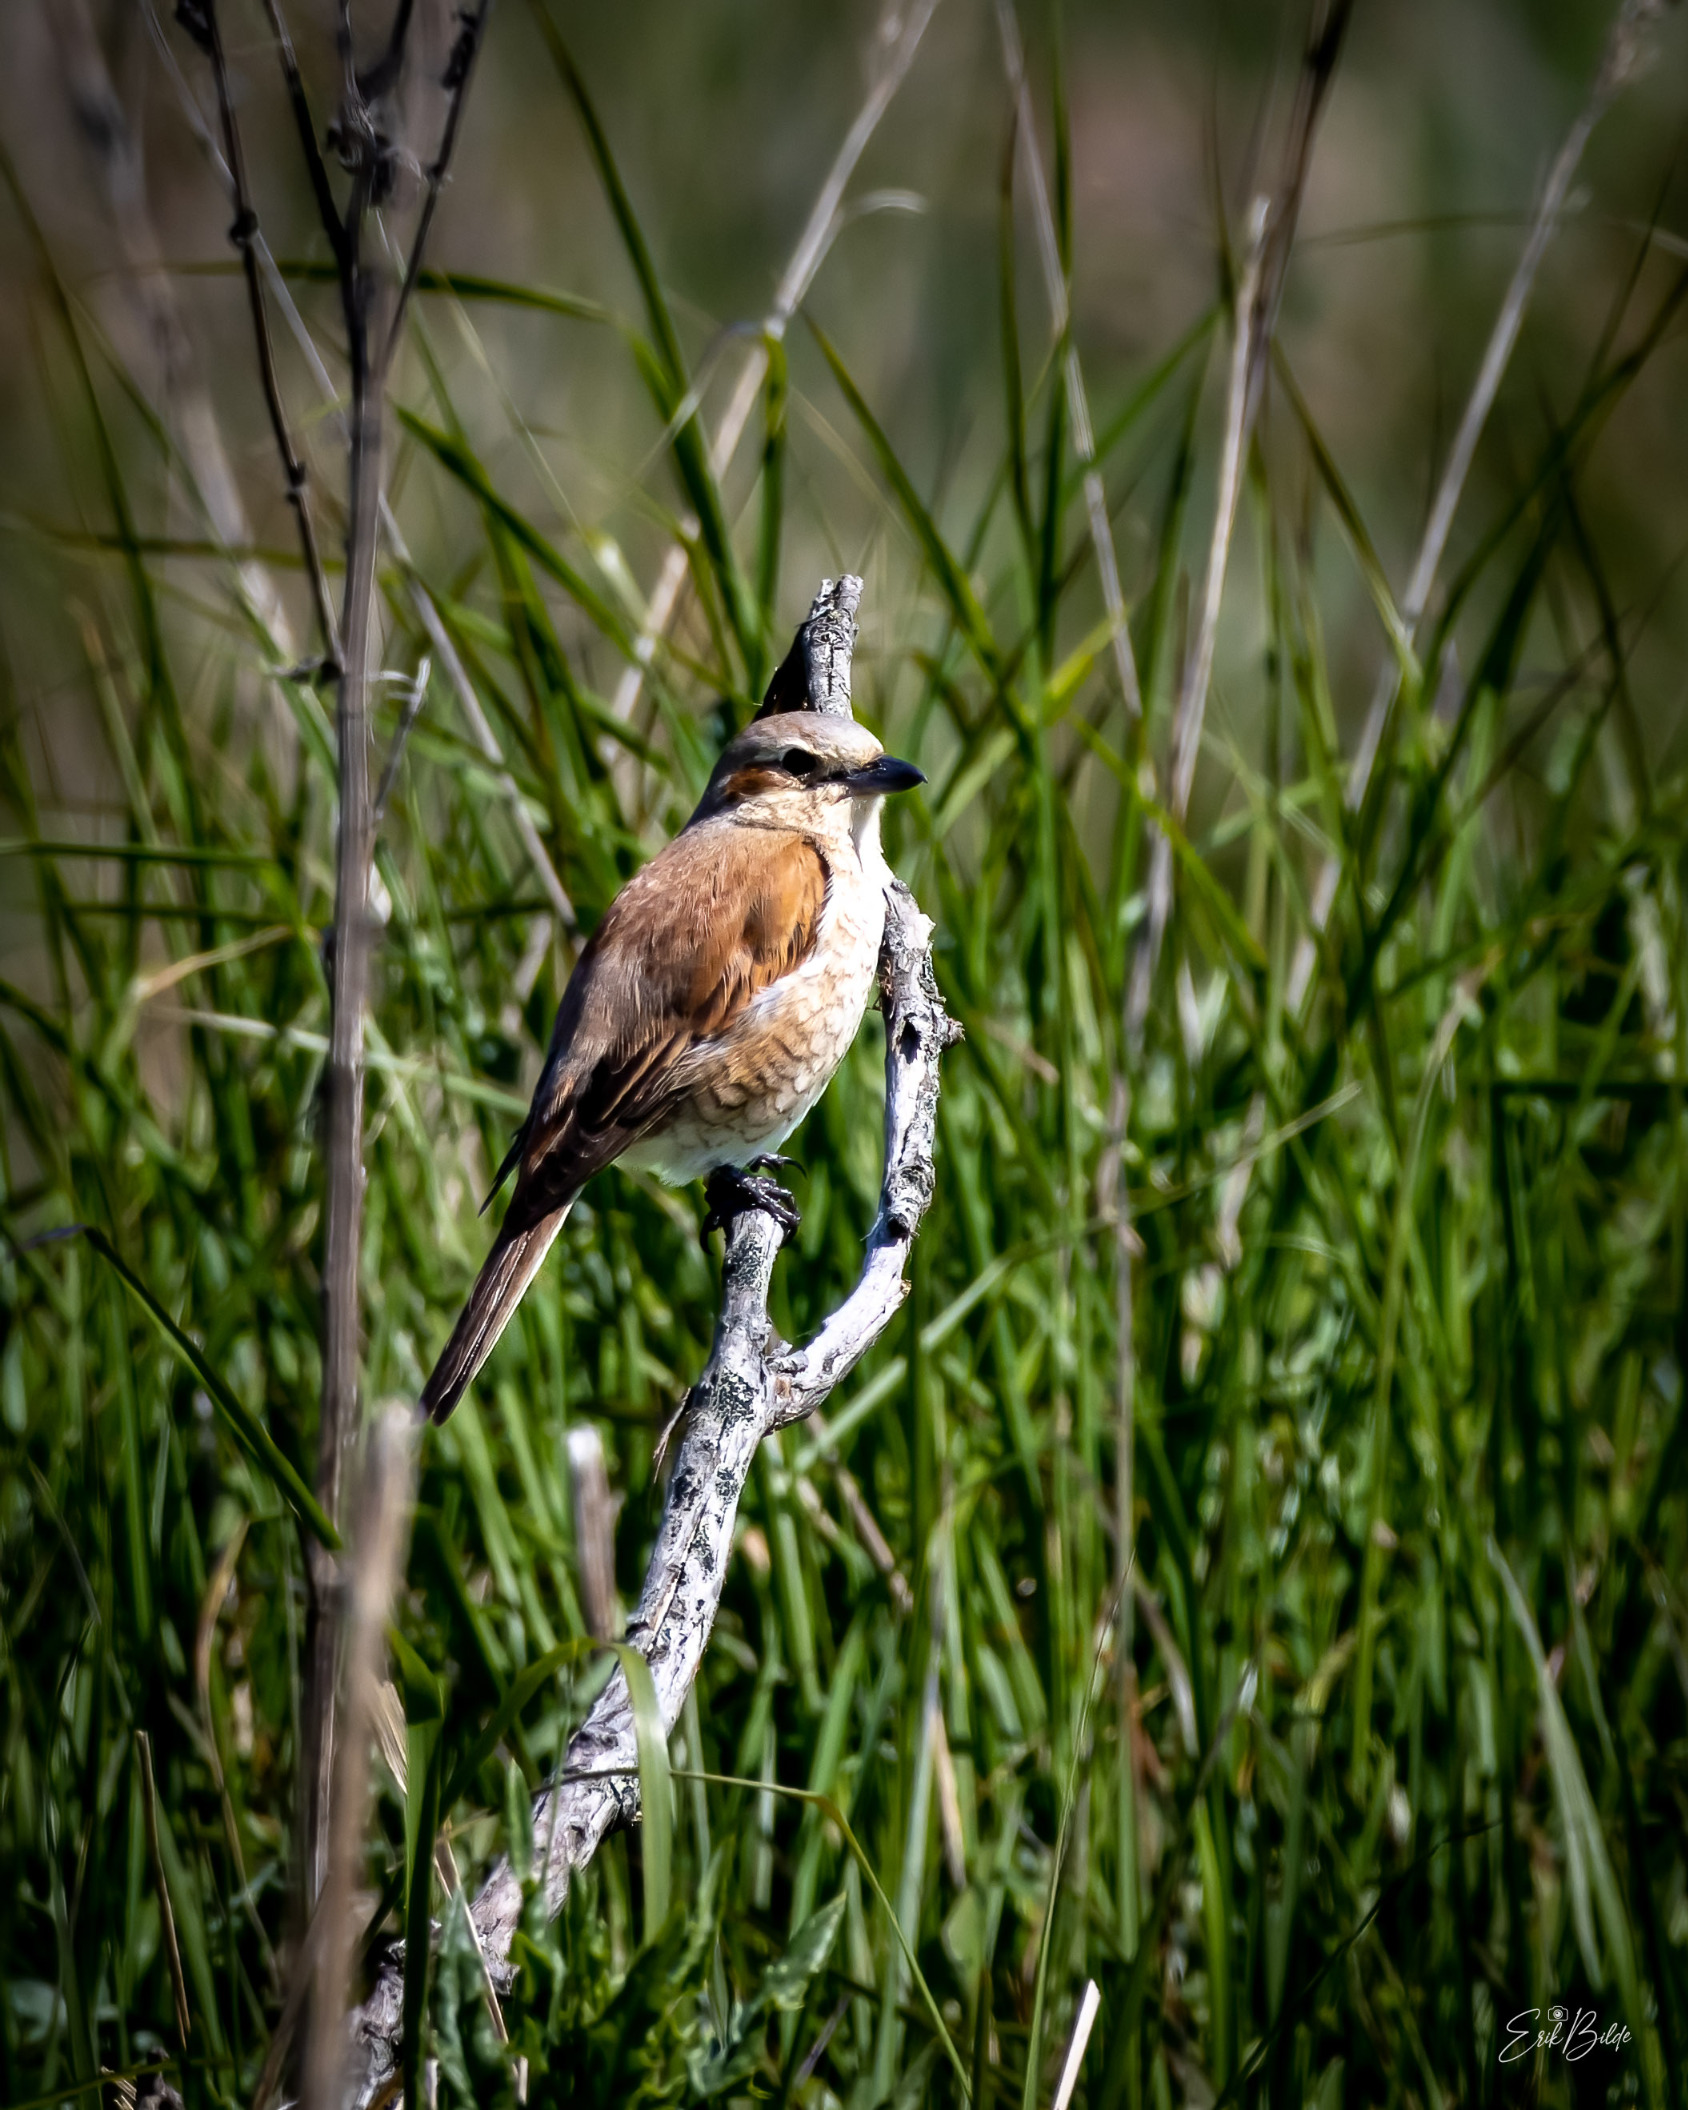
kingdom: Animalia
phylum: Chordata
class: Aves
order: Passeriformes
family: Laniidae
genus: Lanius
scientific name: Lanius collurio
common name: Rødrygget tornskade
